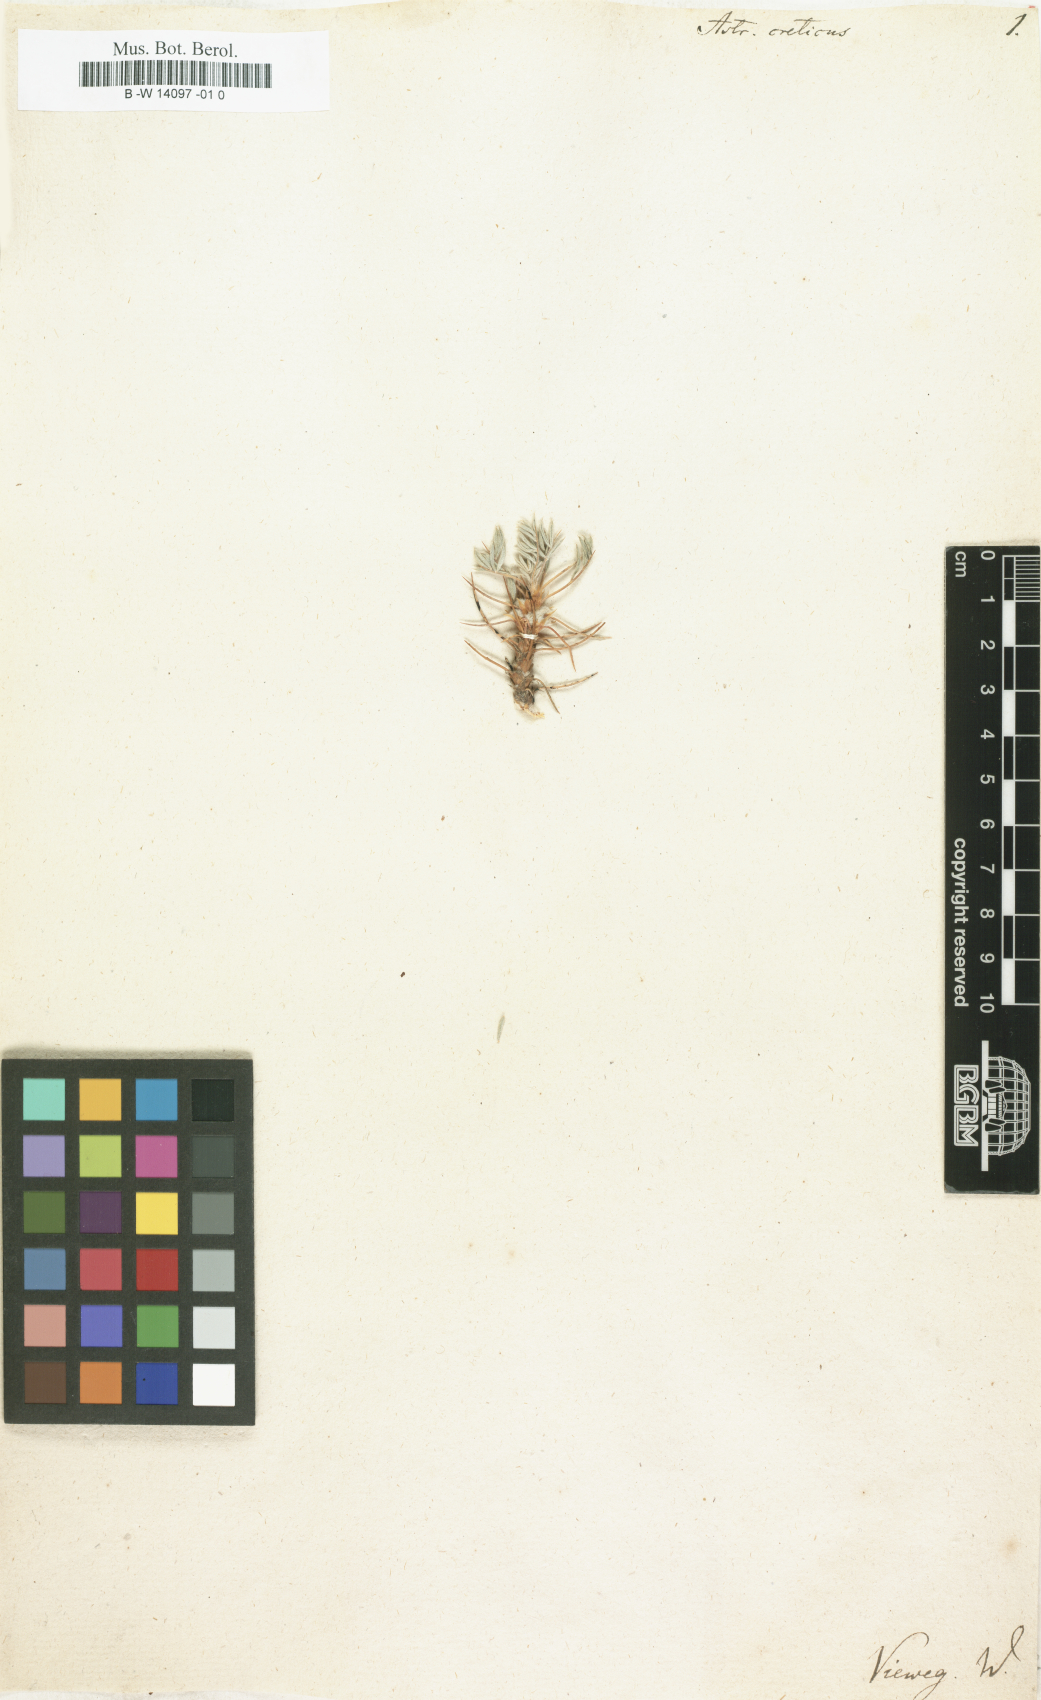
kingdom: Plantae
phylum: Tracheophyta
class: Magnoliopsida
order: Fabales
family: Fabaceae
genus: Astragalus
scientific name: Astragalus creticus
